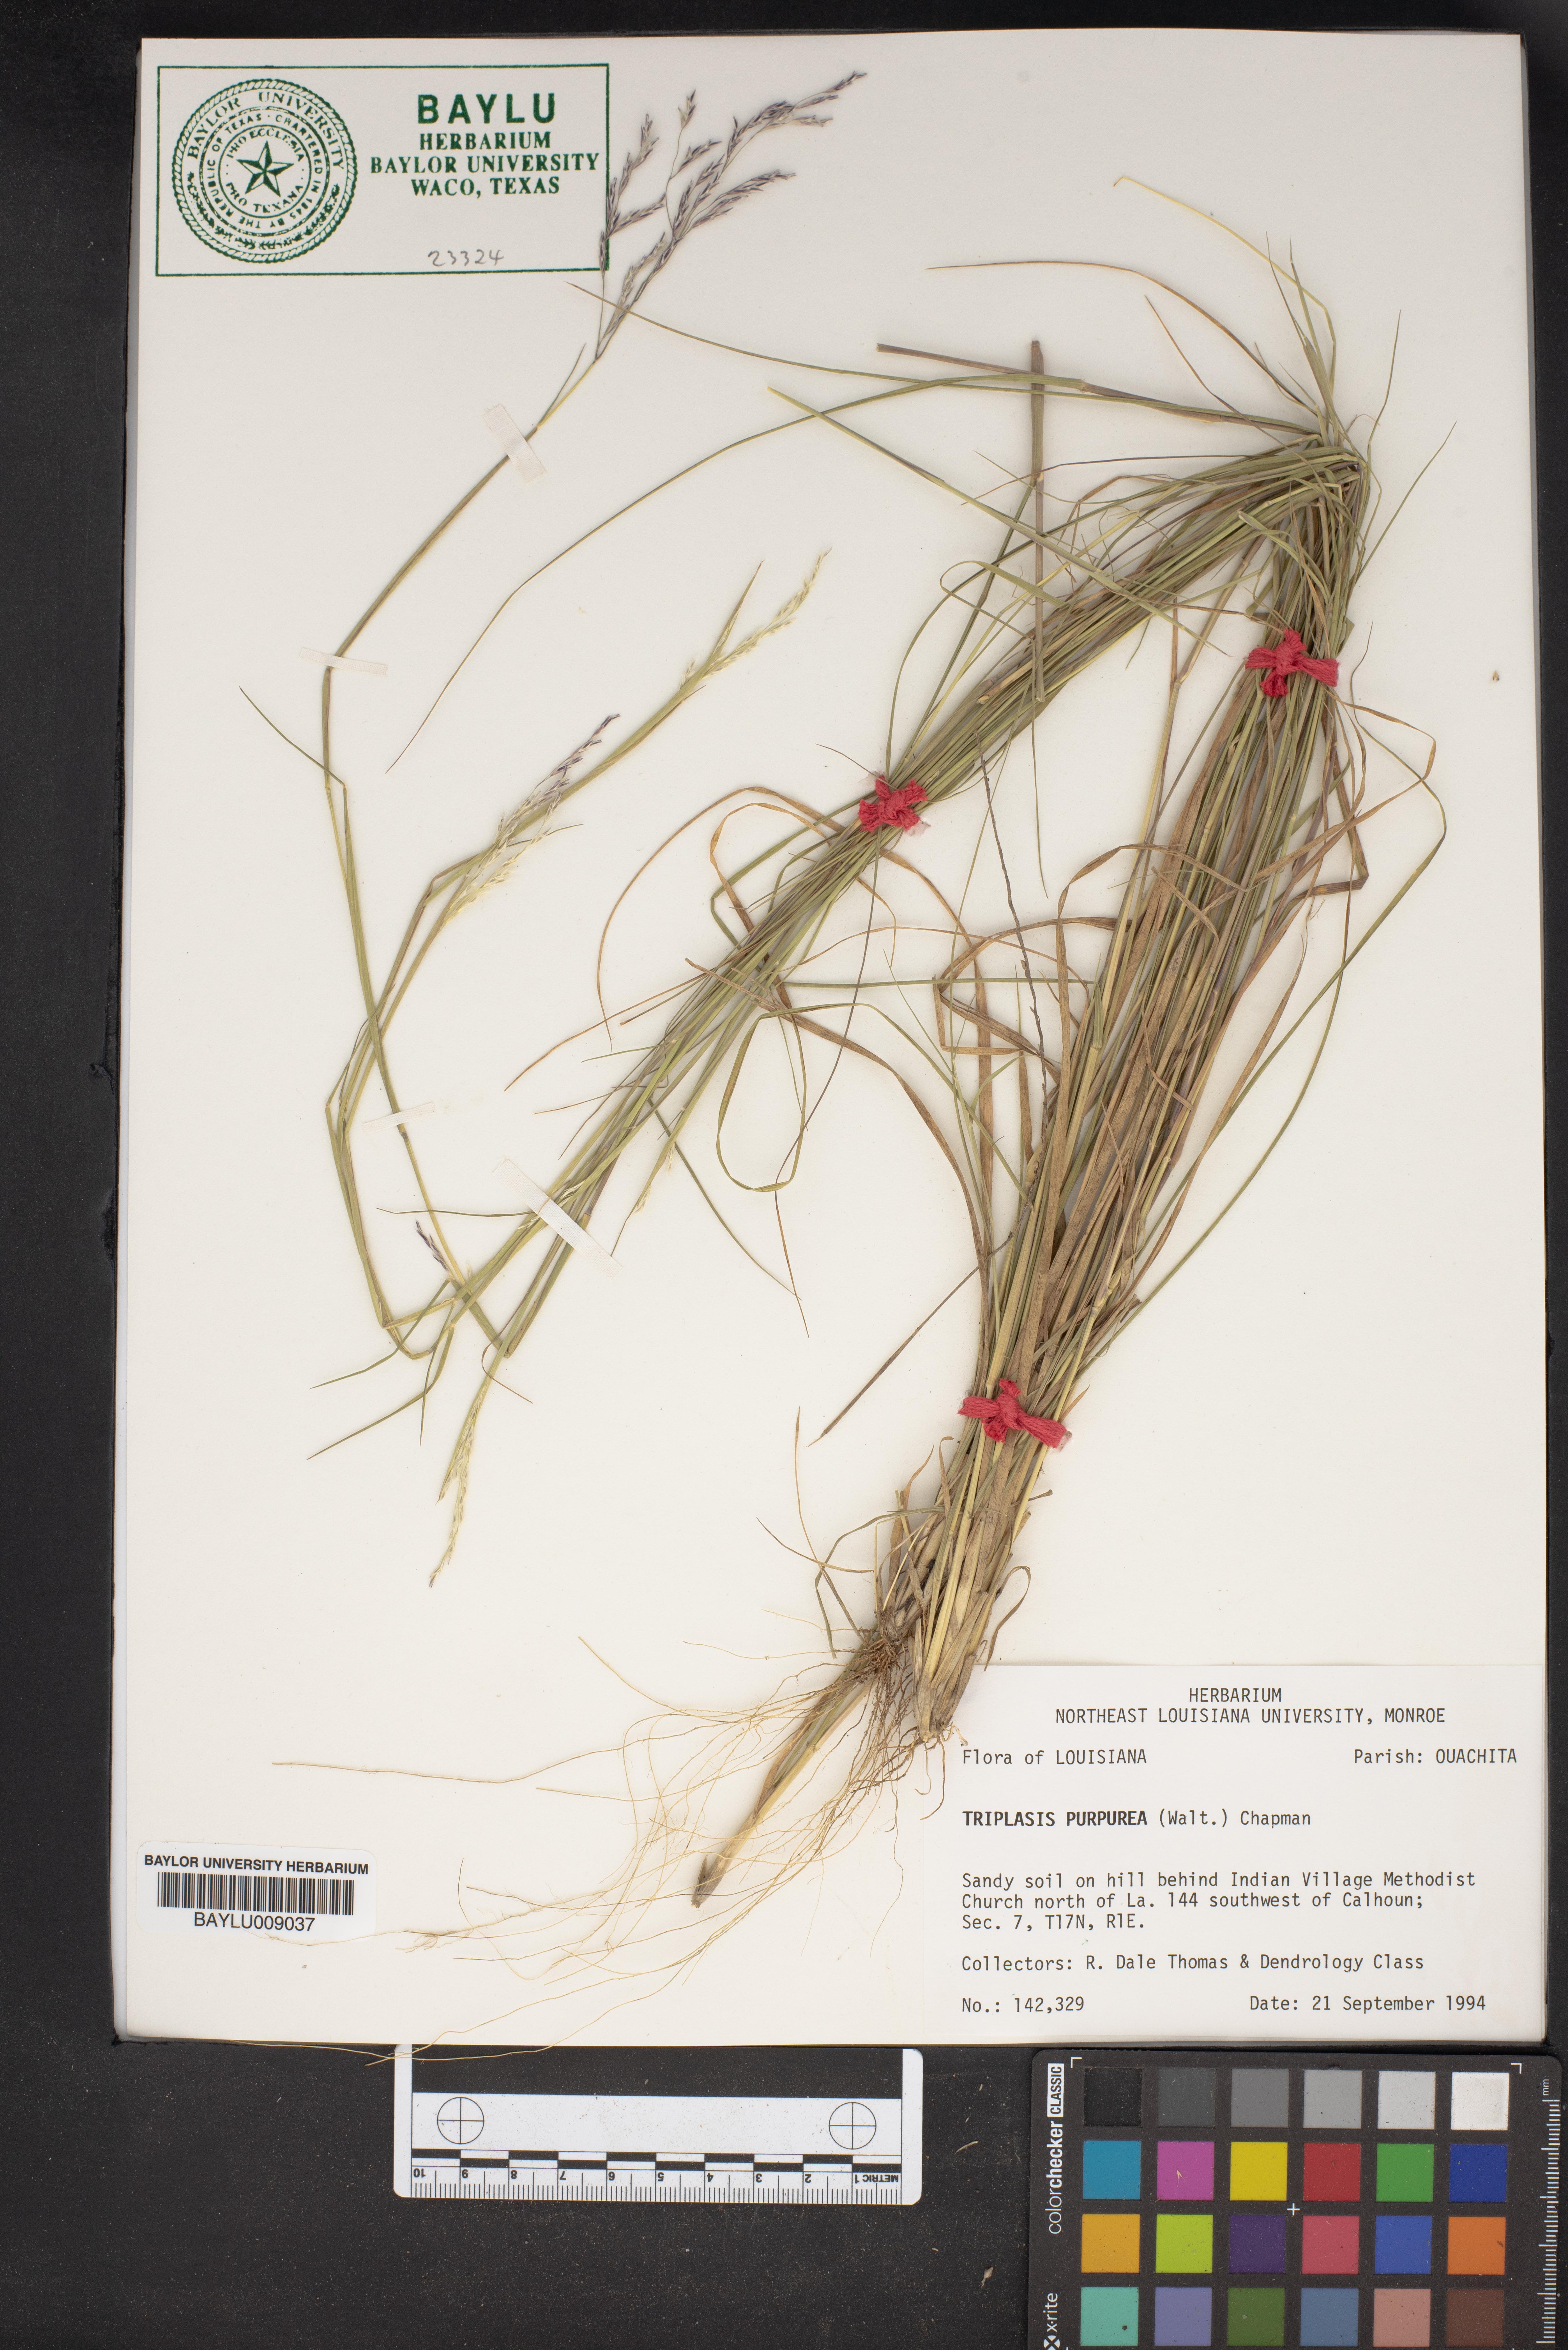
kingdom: Plantae
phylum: Tracheophyta
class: Liliopsida
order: Poales
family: Poaceae
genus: Triplasis
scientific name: Triplasis purpurea
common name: Purple sand grass
